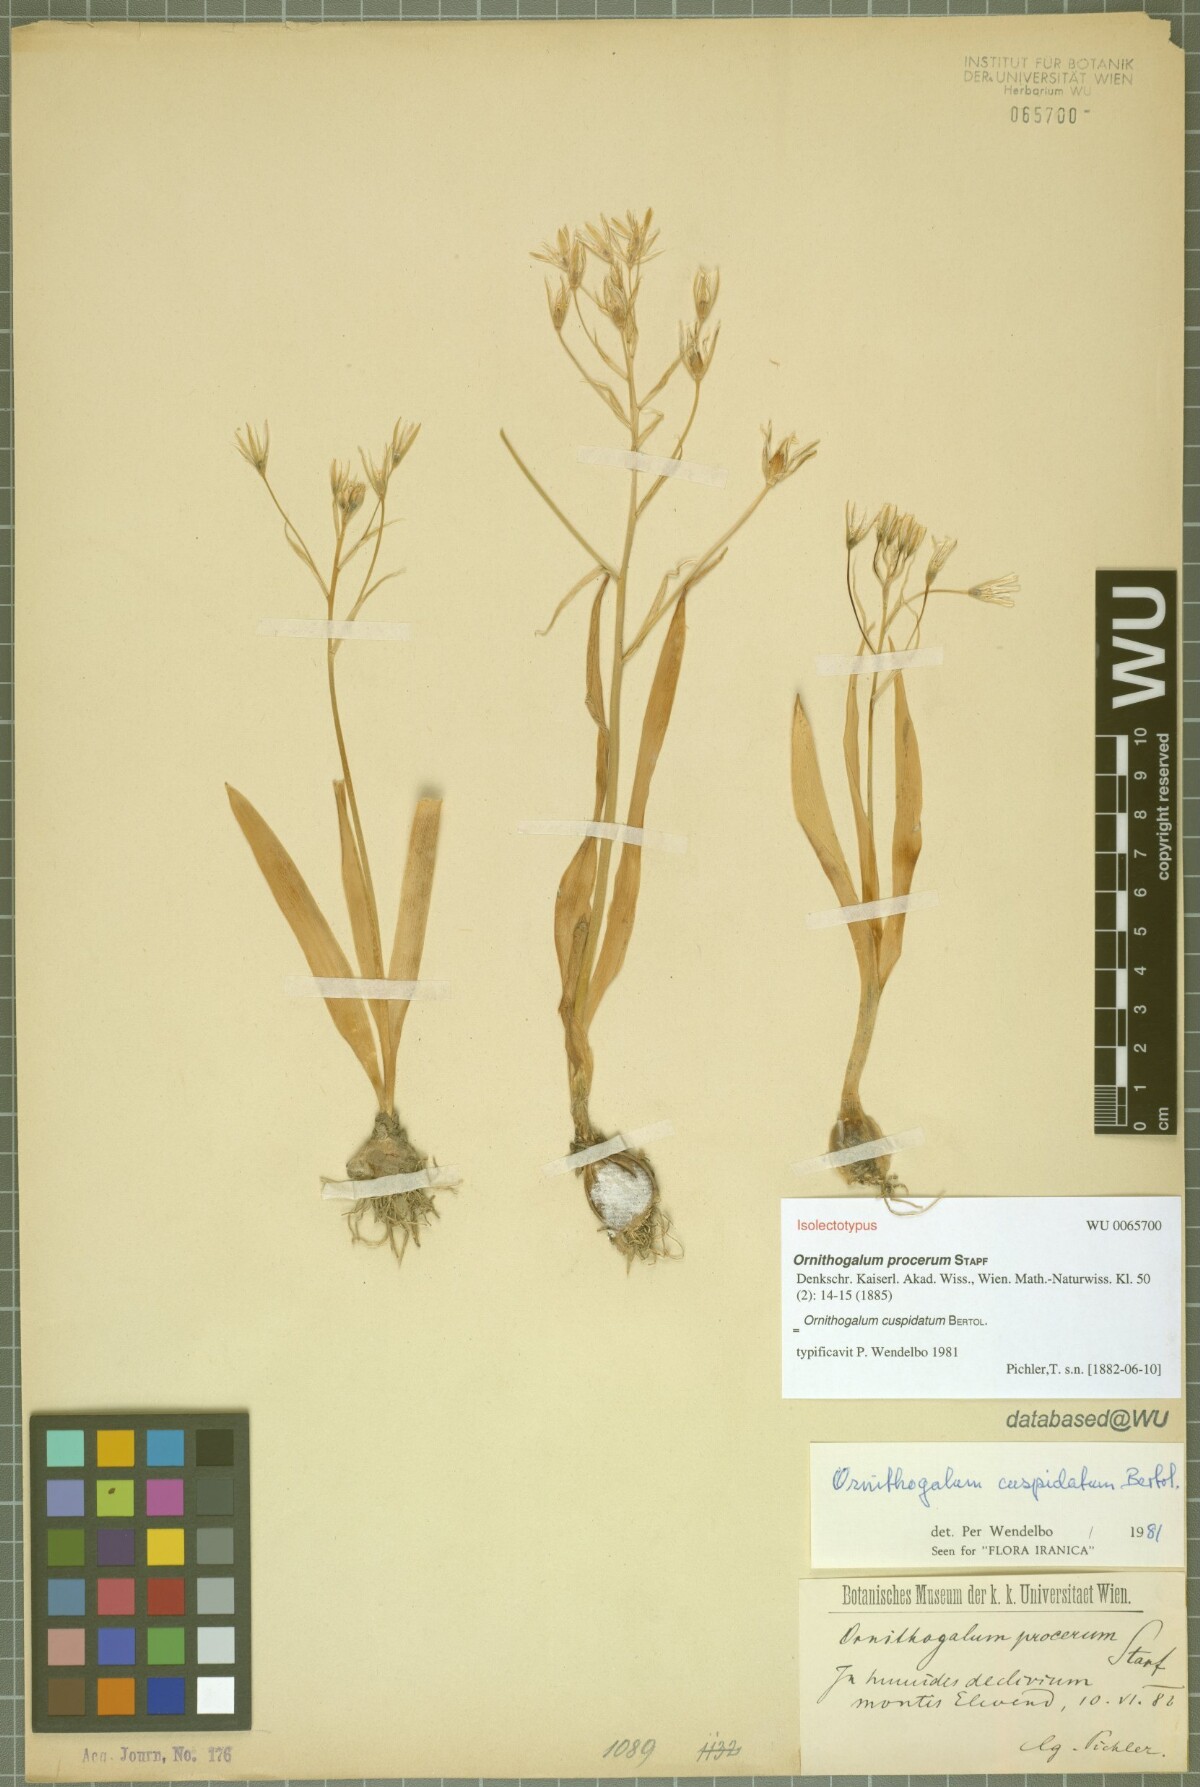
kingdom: Plantae
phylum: Tracheophyta
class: Liliopsida
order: Asparagales
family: Asparagaceae
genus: Ornithogalum
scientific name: Ornithogalum cuspidatum
